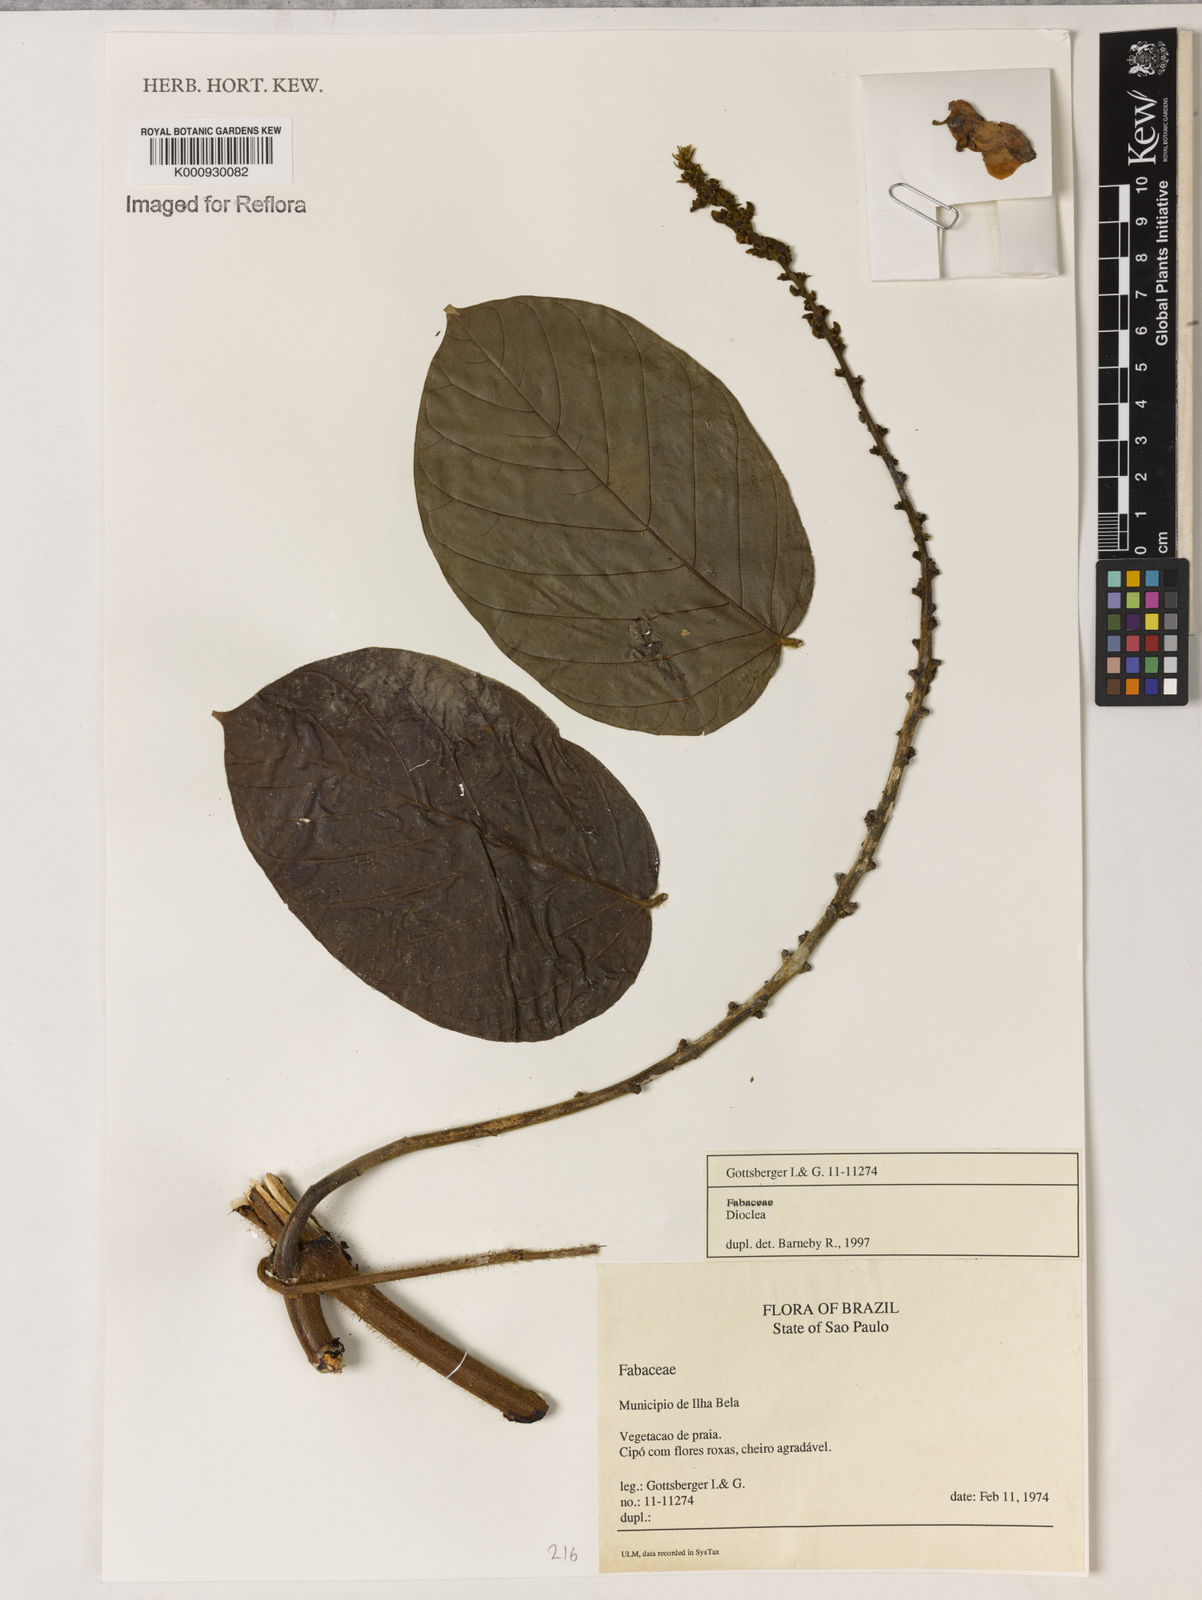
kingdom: Plantae
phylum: Tracheophyta
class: Magnoliopsida
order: Fabales
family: Fabaceae
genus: Dioclea
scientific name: Dioclea
